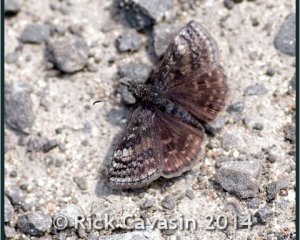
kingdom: Animalia
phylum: Arthropoda
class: Insecta
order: Lepidoptera
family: Hesperiidae
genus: Erynnis
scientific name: Erynnis icelus
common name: Dreamy Duskywing
